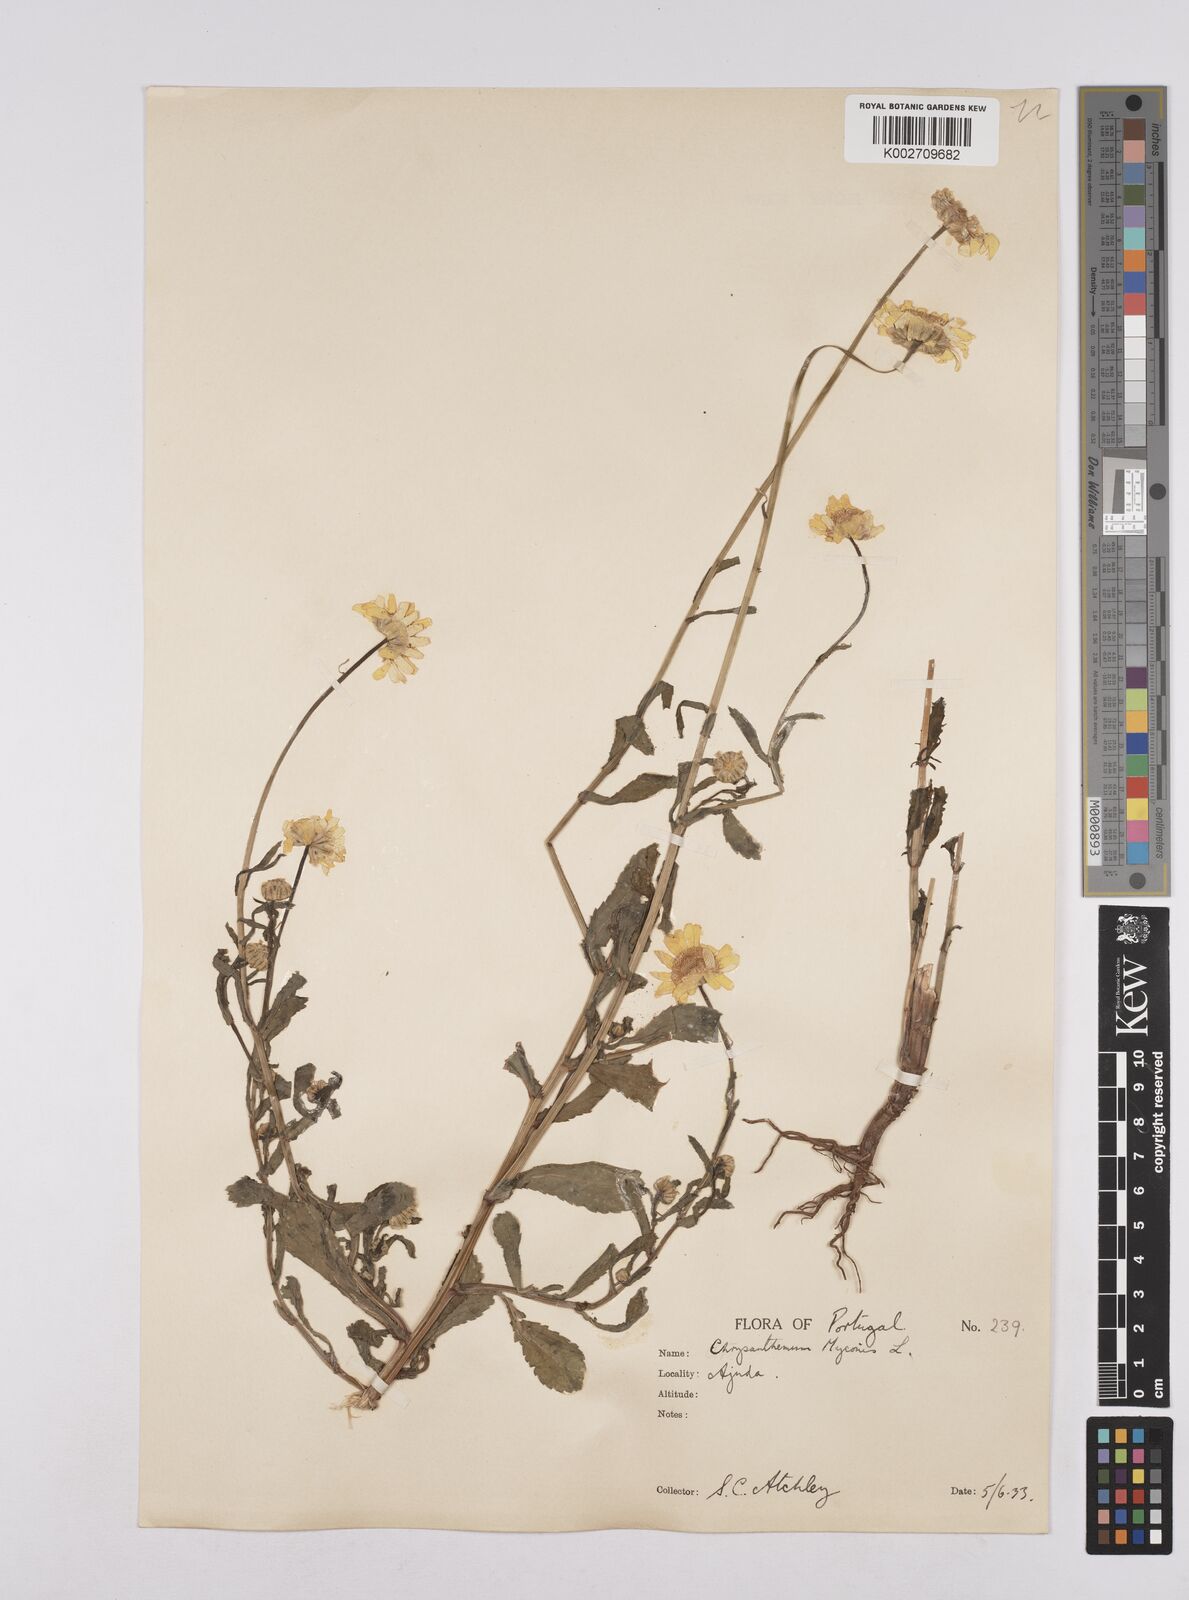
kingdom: Plantae
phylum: Tracheophyta
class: Magnoliopsida
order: Asterales
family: Asteraceae
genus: Coleostephus
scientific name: Coleostephus myconis
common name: Mediterranean marigold
